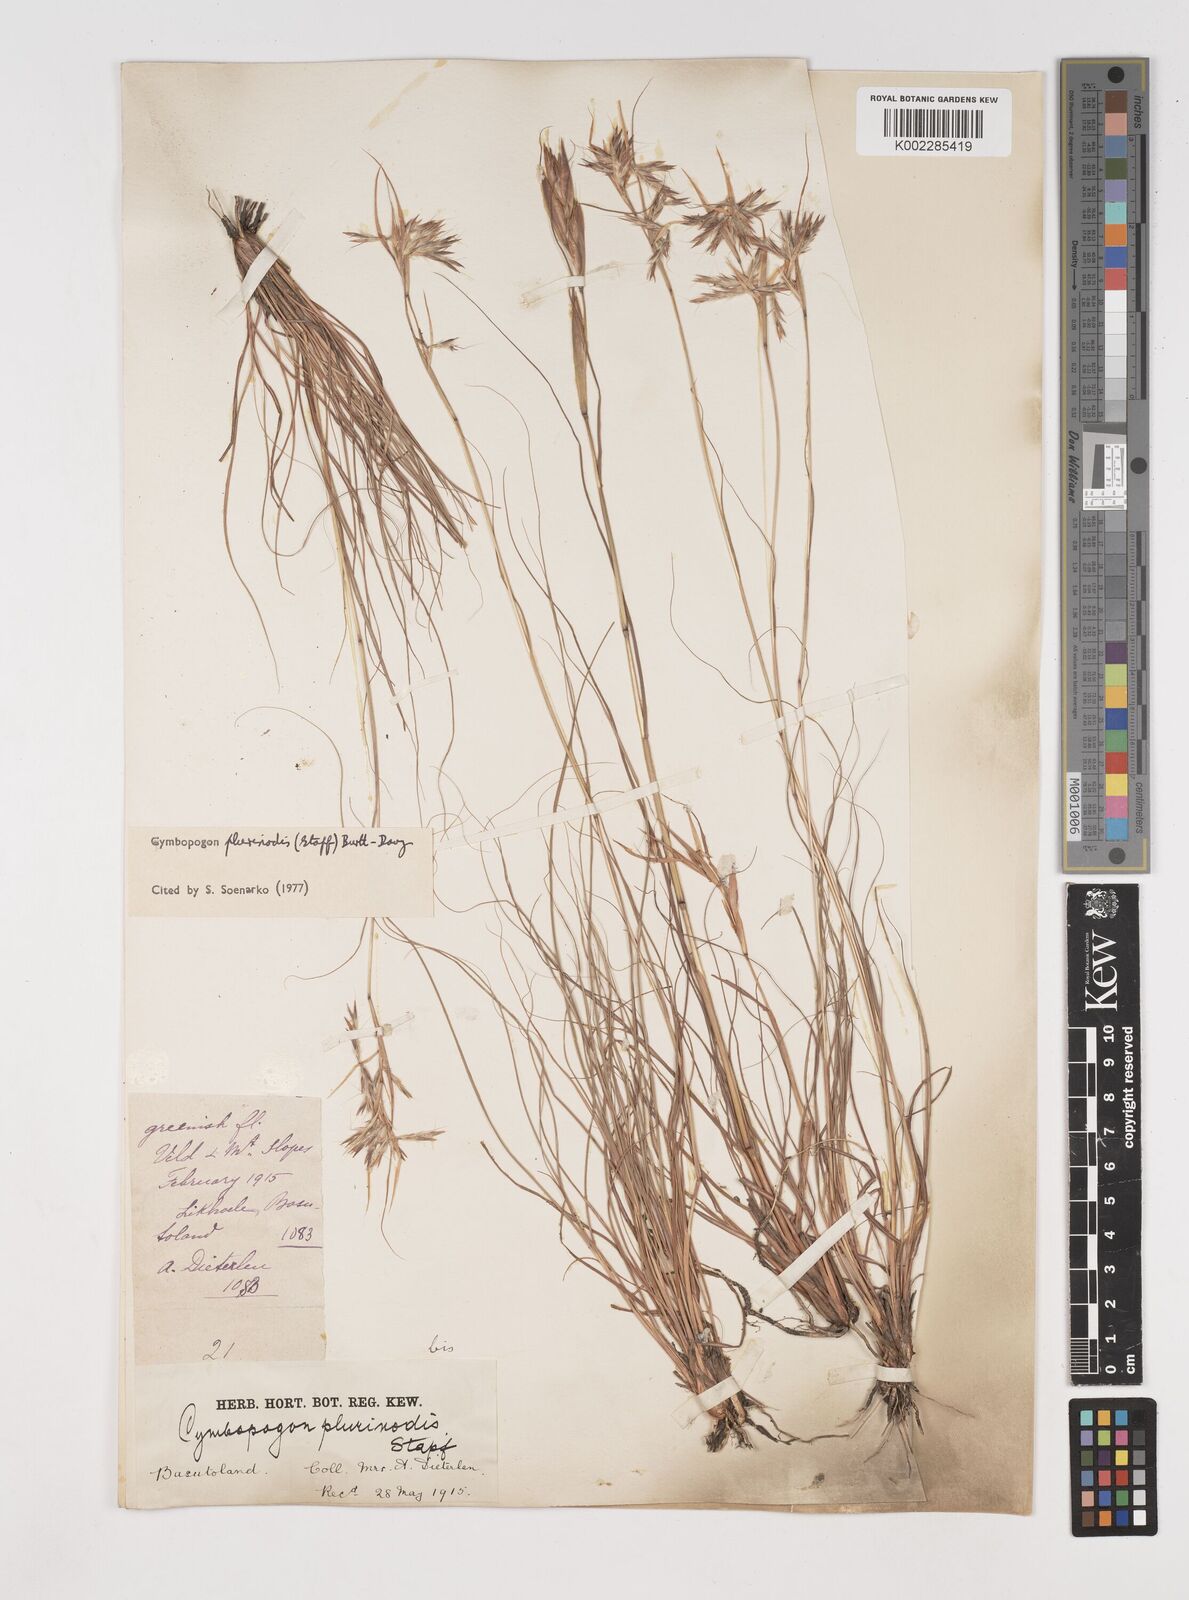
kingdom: Plantae
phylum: Tracheophyta
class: Liliopsida
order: Poales
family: Poaceae
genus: Cymbopogon
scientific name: Cymbopogon
